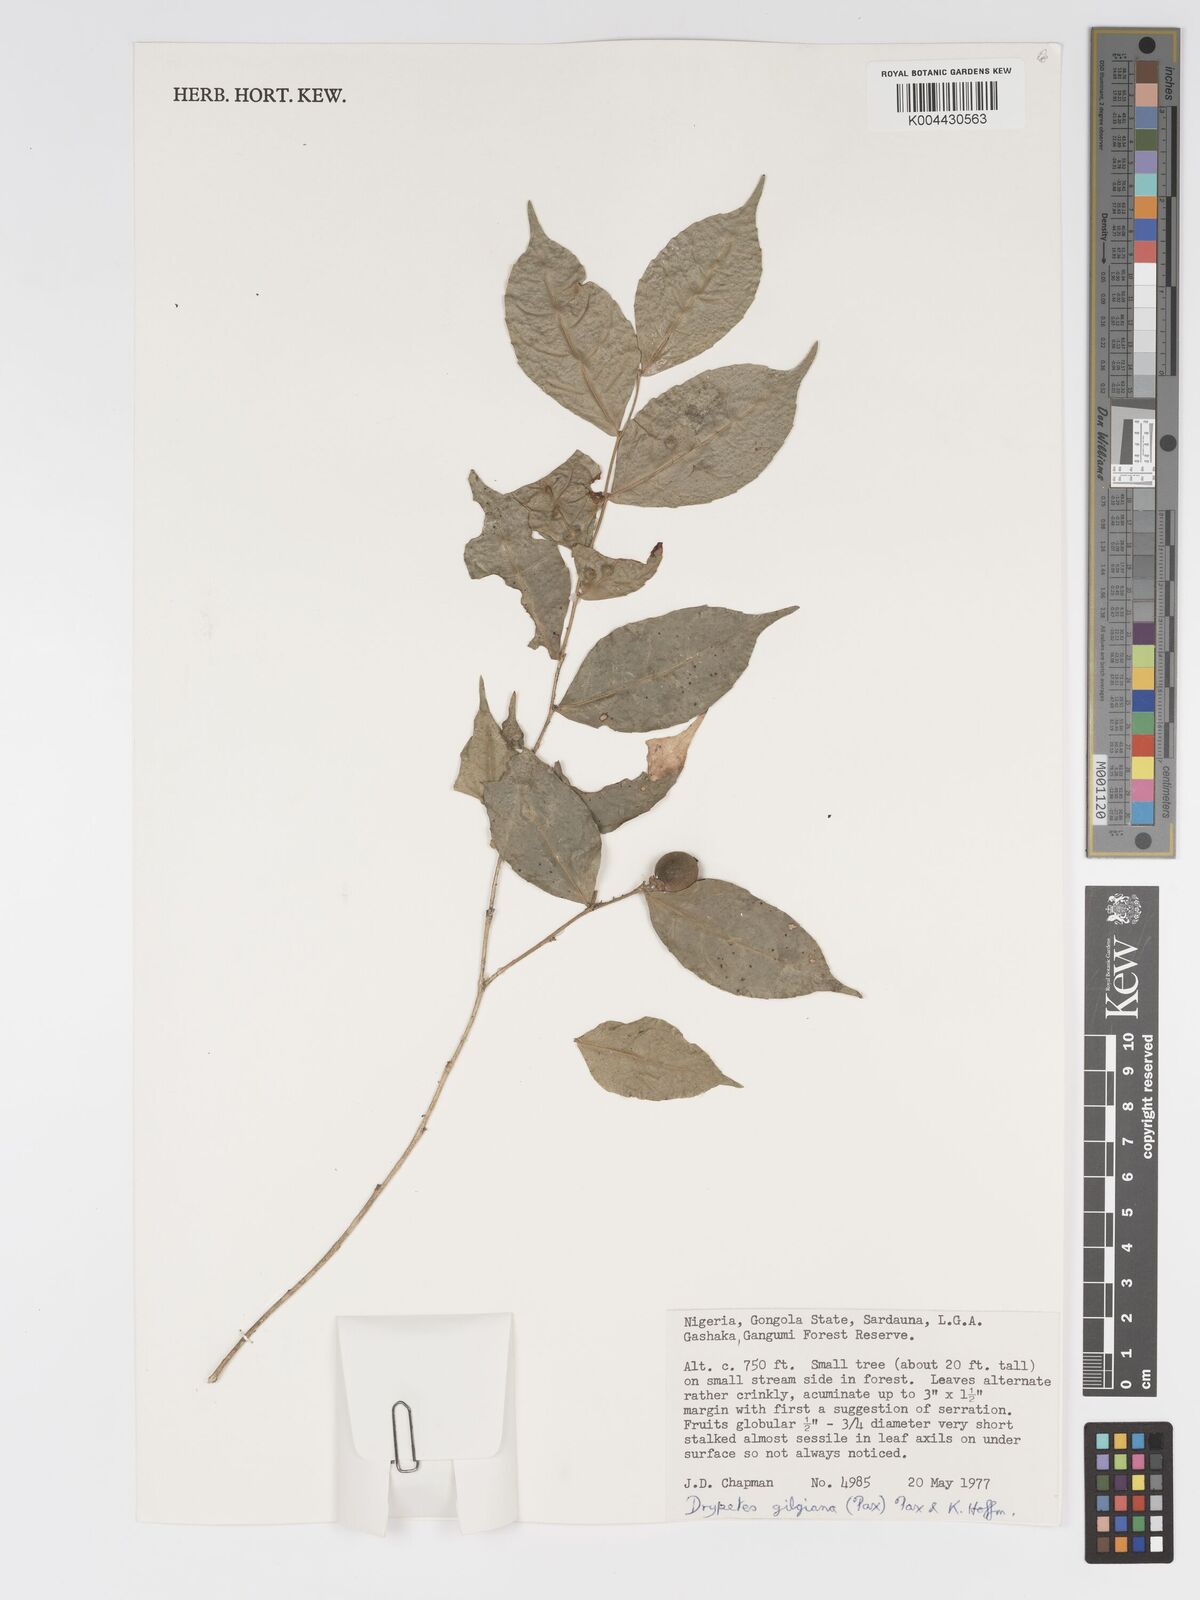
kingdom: Plantae
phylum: Tracheophyta
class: Magnoliopsida
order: Malpighiales
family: Putranjivaceae
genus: Drypetes
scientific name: Drypetes gilgiana
